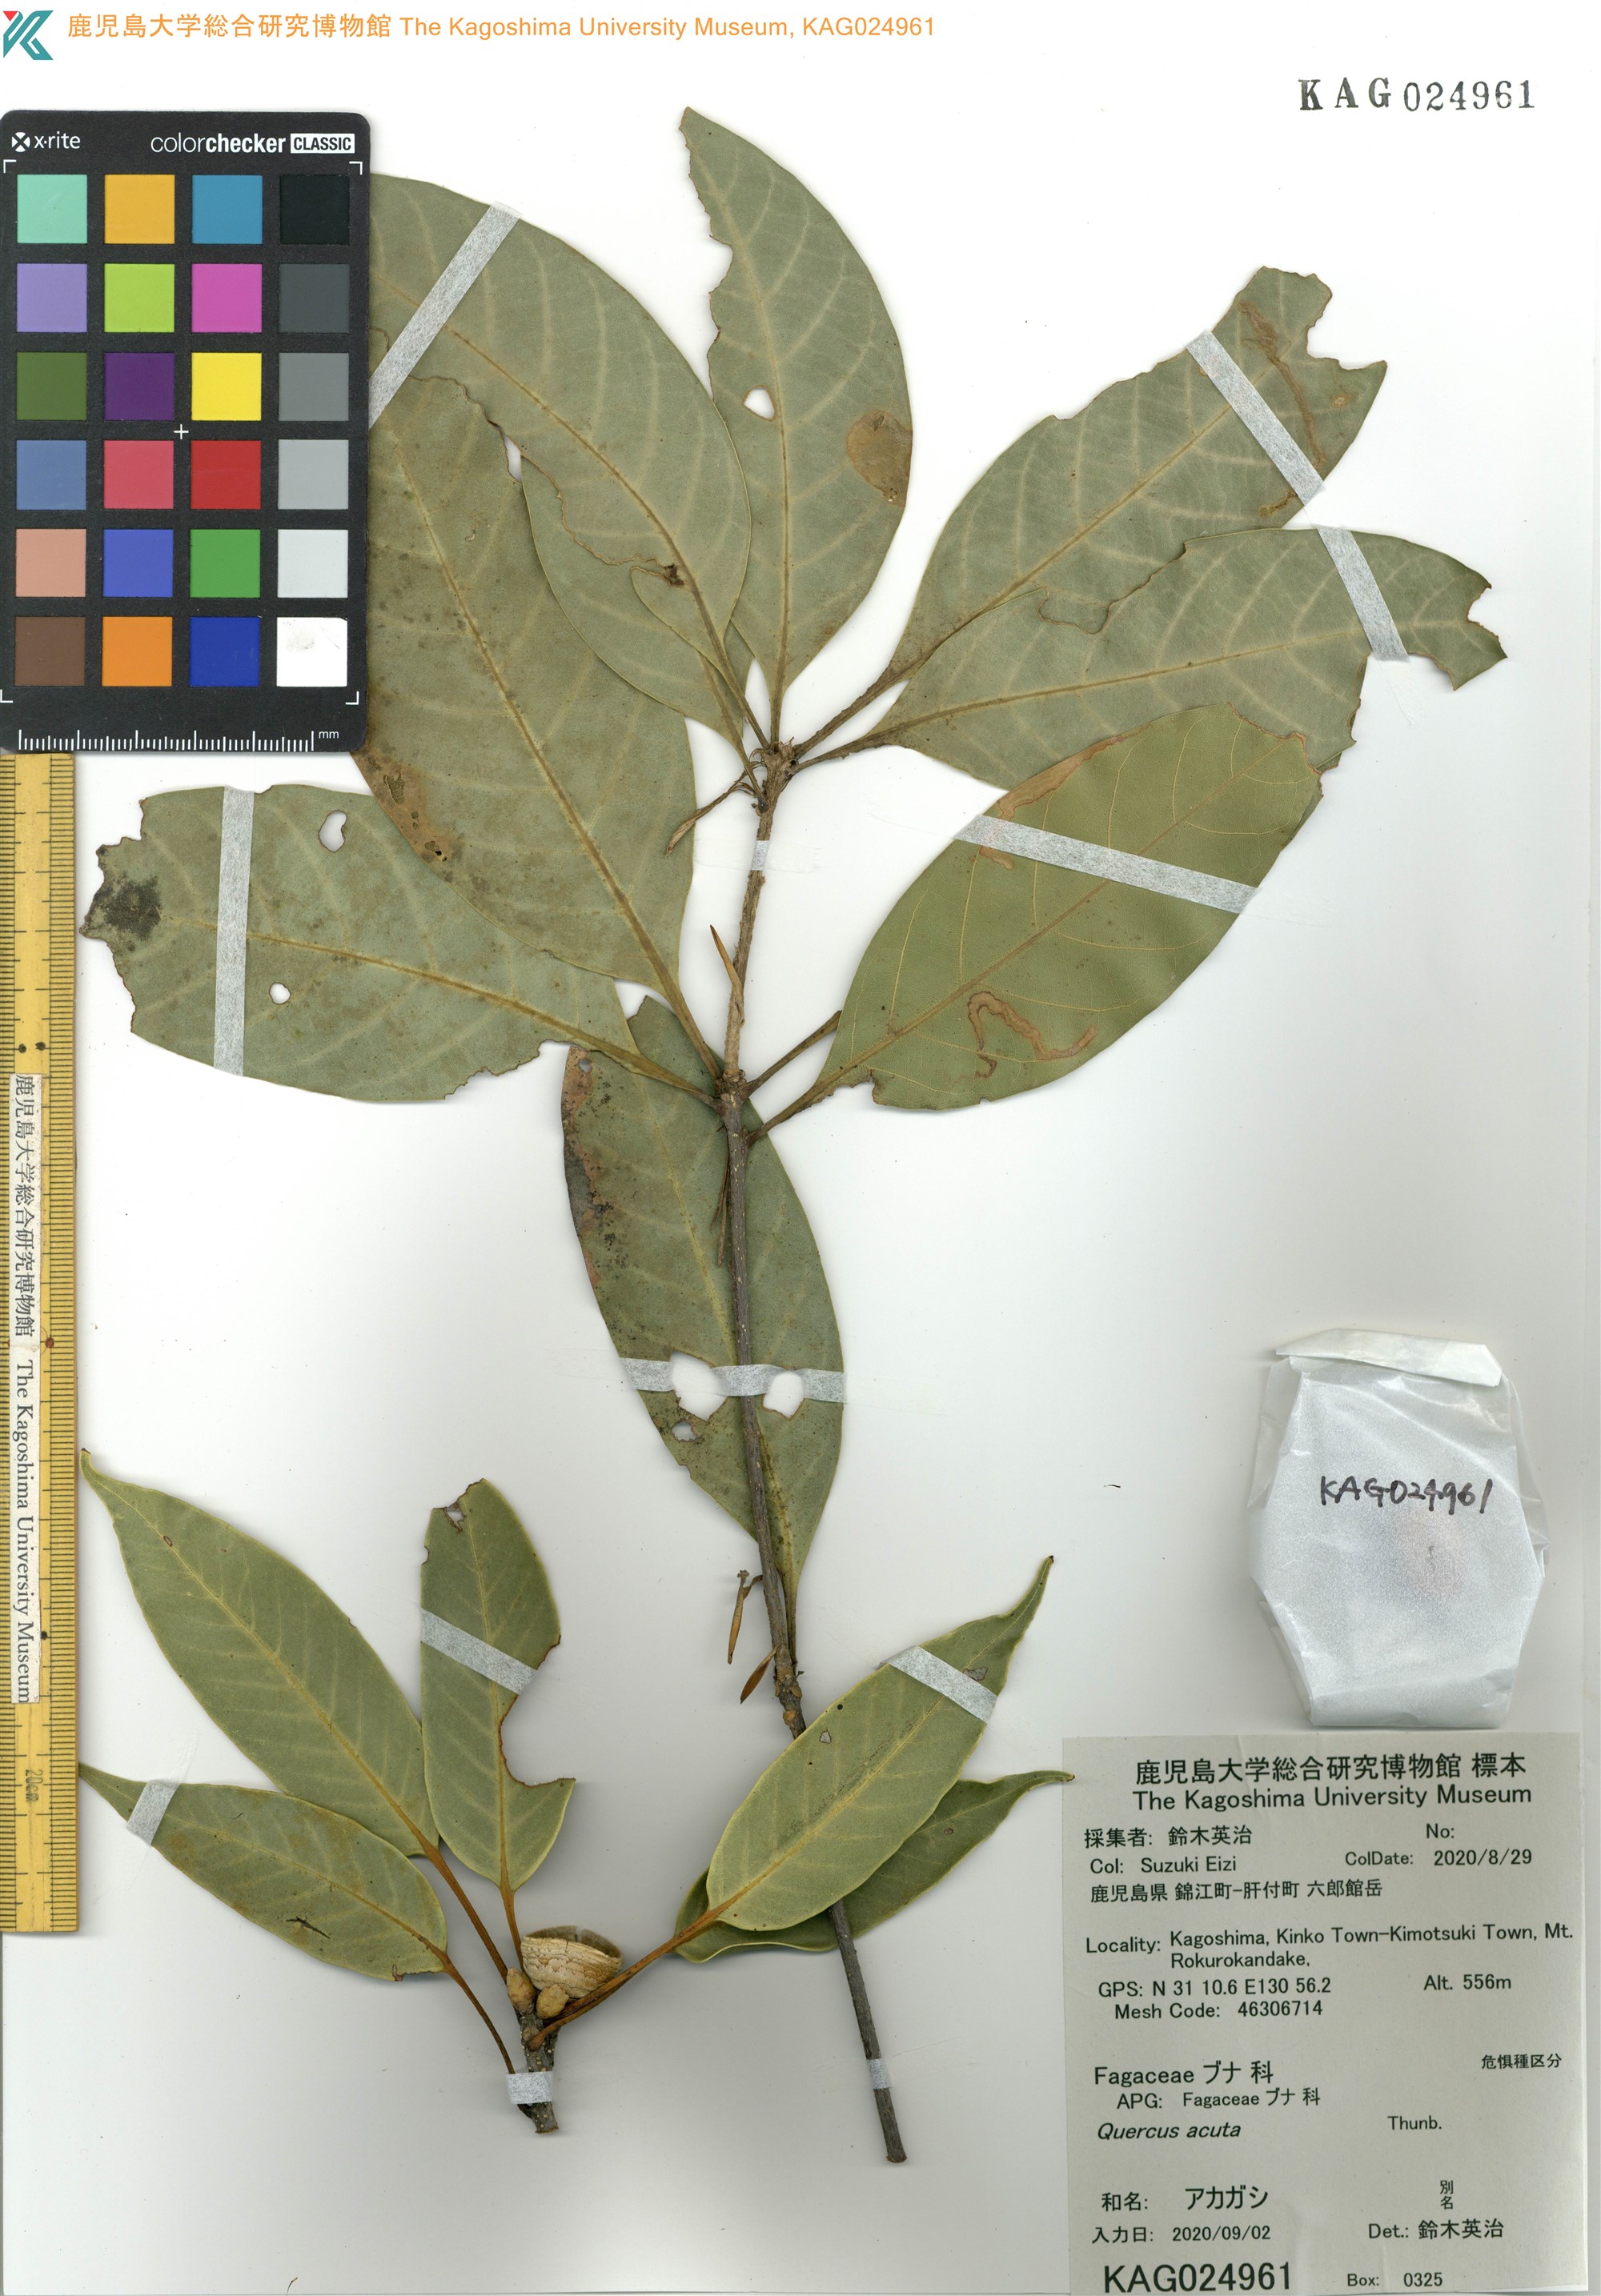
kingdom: Plantae
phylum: Tracheophyta
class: Magnoliopsida
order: Fagales
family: Fagaceae
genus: Quercus
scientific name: Quercus acuta
